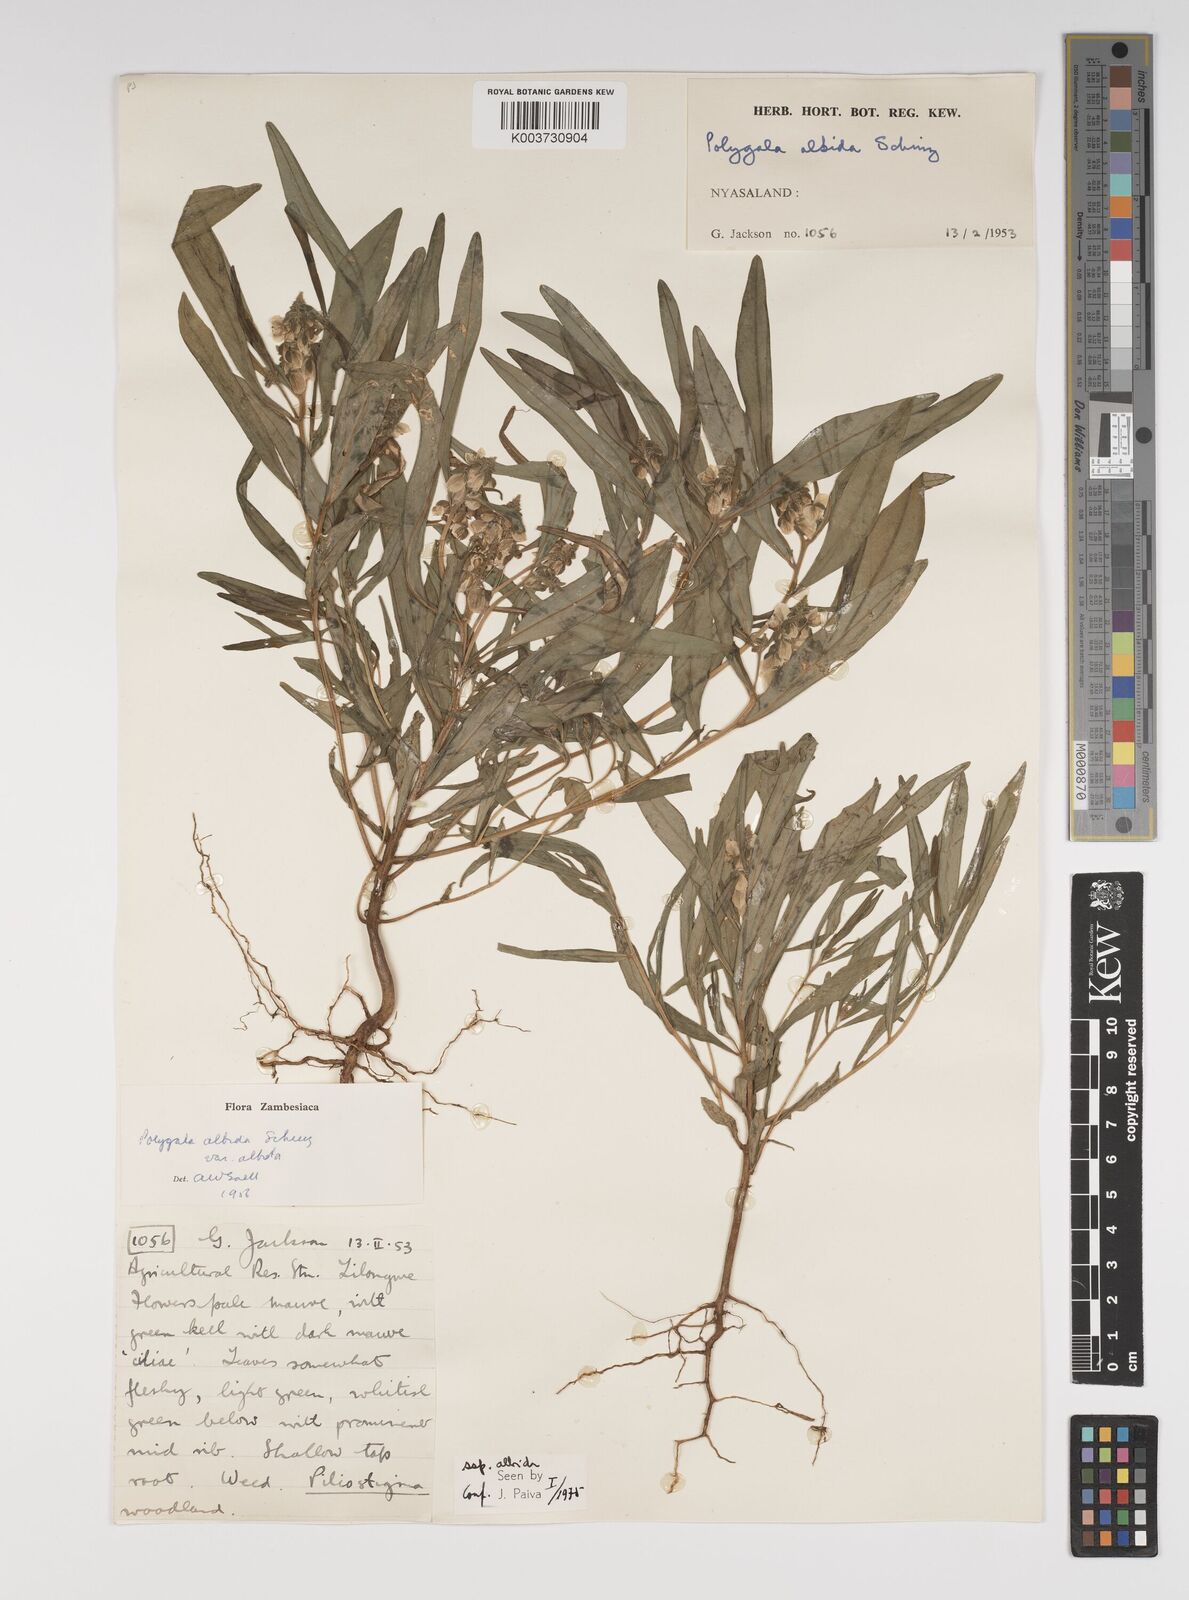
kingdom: Plantae
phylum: Tracheophyta
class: Magnoliopsida
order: Fabales
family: Polygalaceae
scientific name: Polygalaceae
